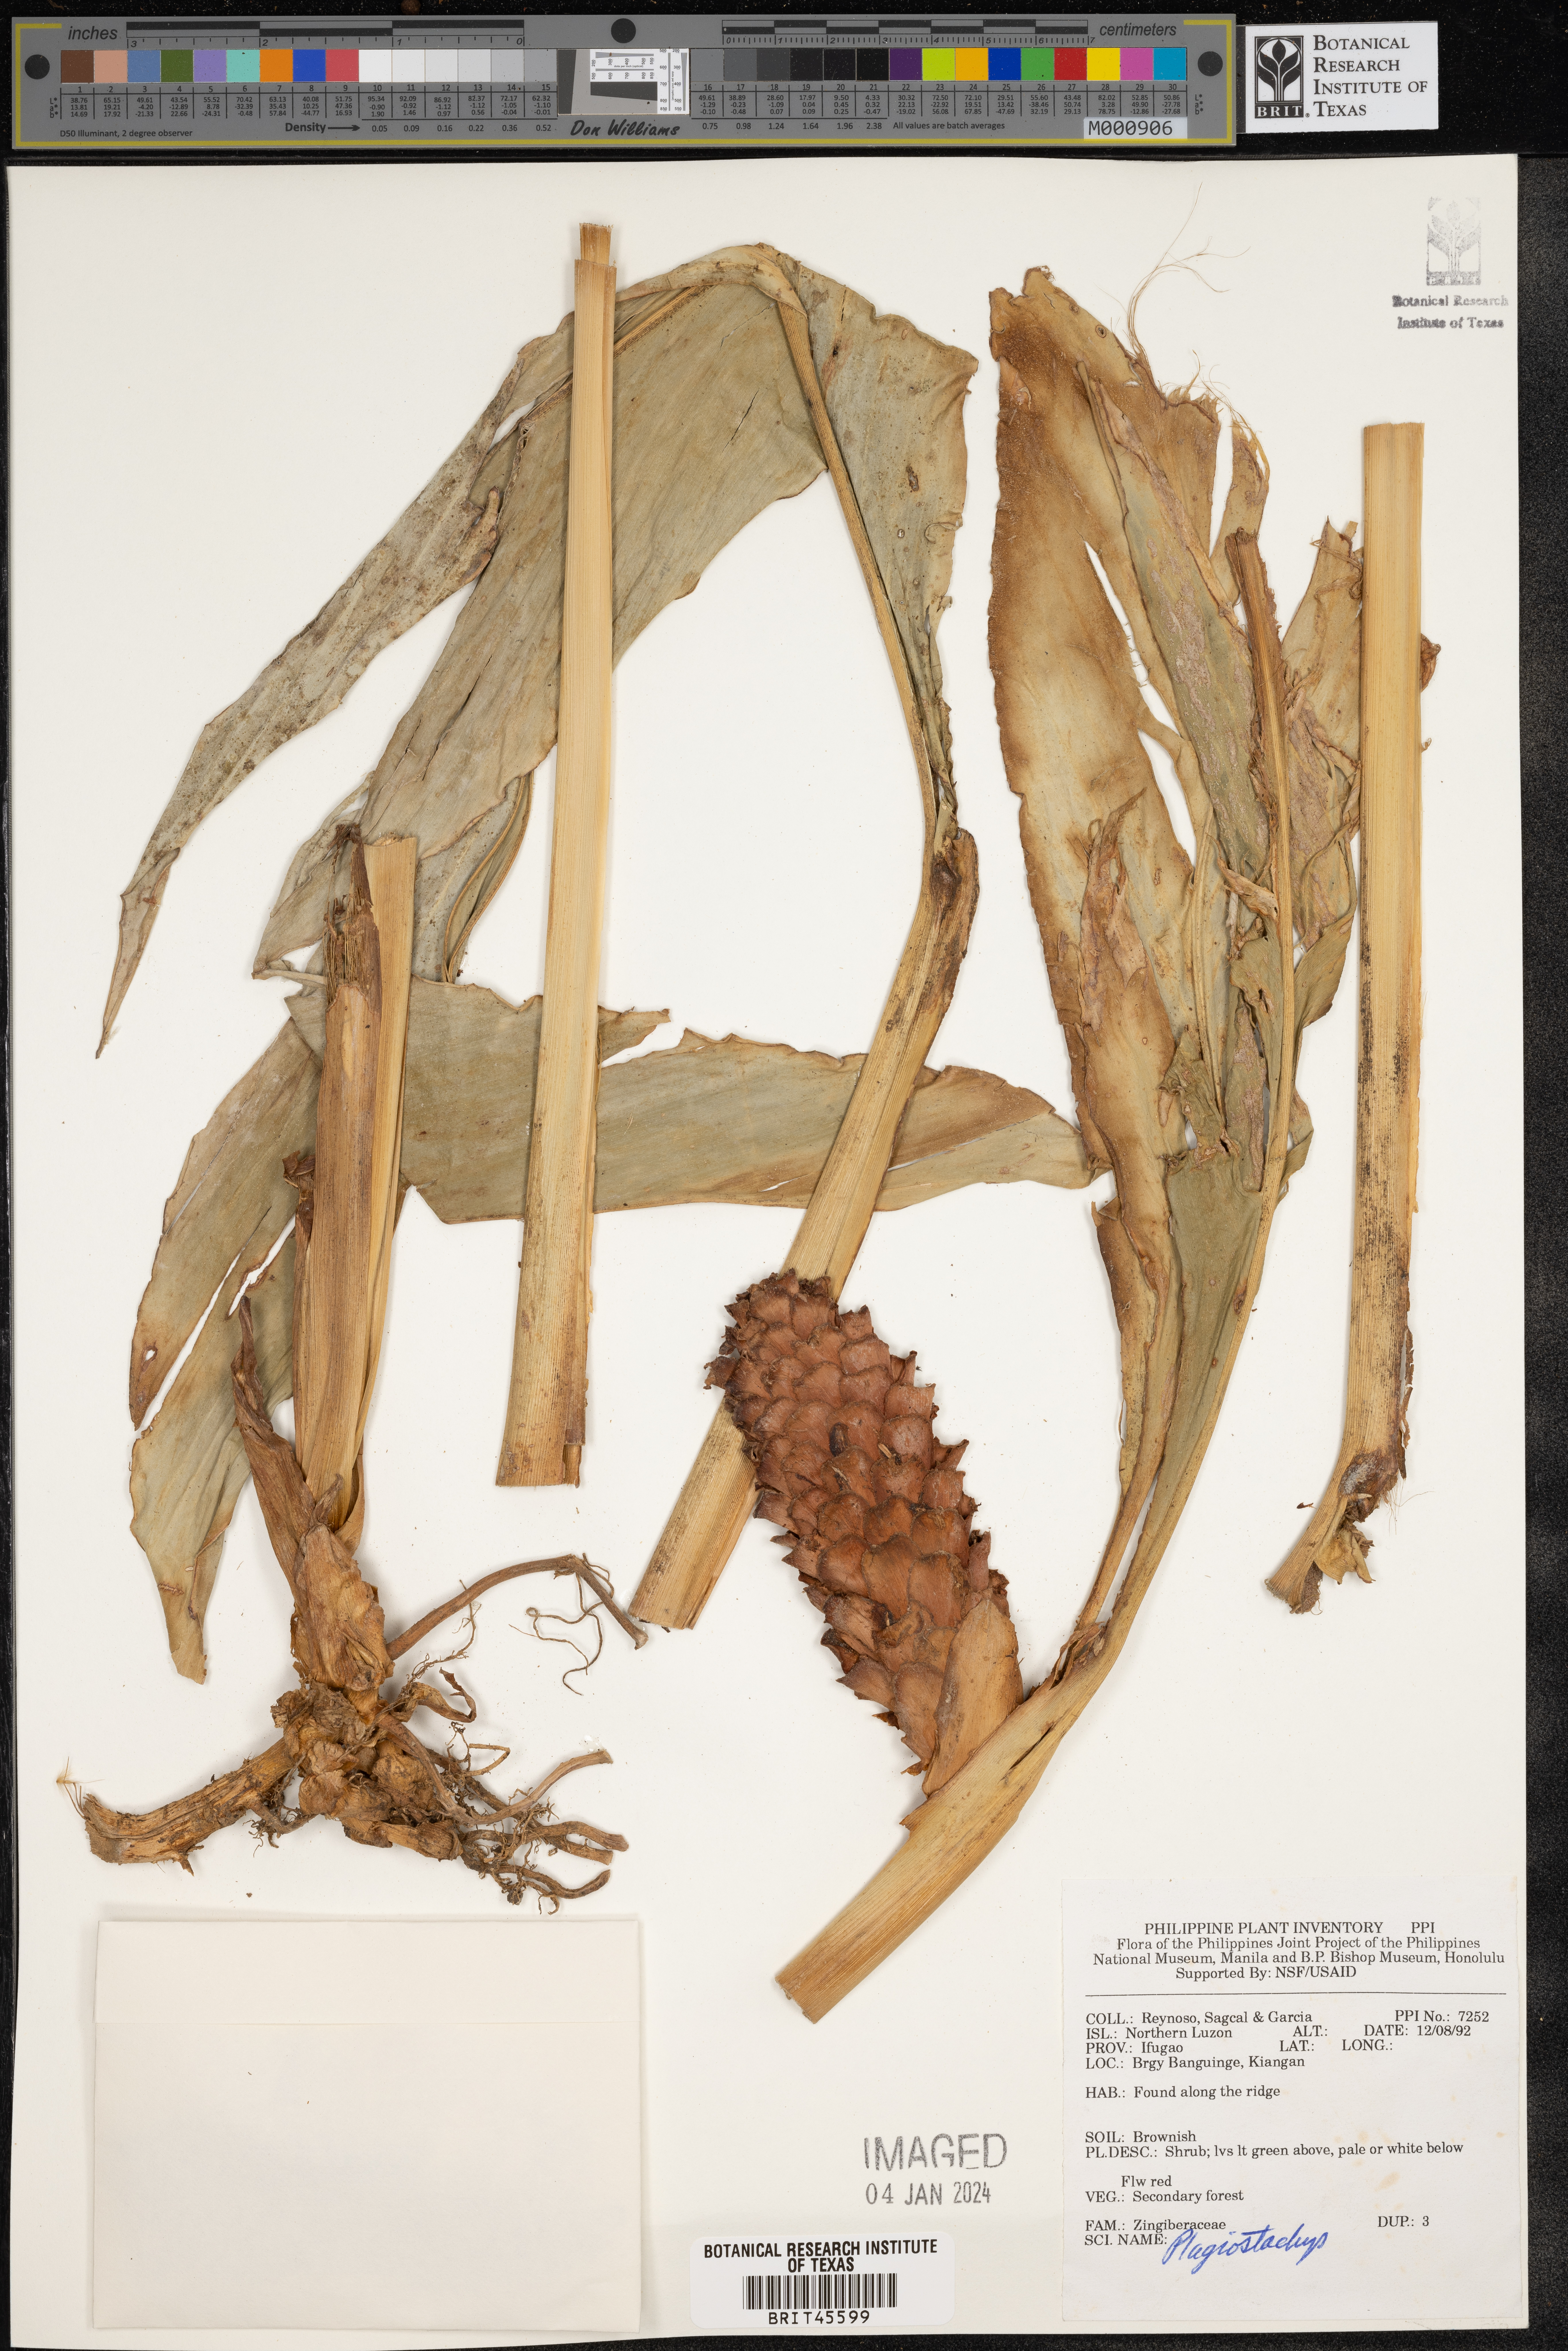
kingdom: Plantae
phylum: Tracheophyta
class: Liliopsida
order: Zingiberales
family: Zingiberaceae
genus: Plagiostachys
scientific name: Plagiostachys
